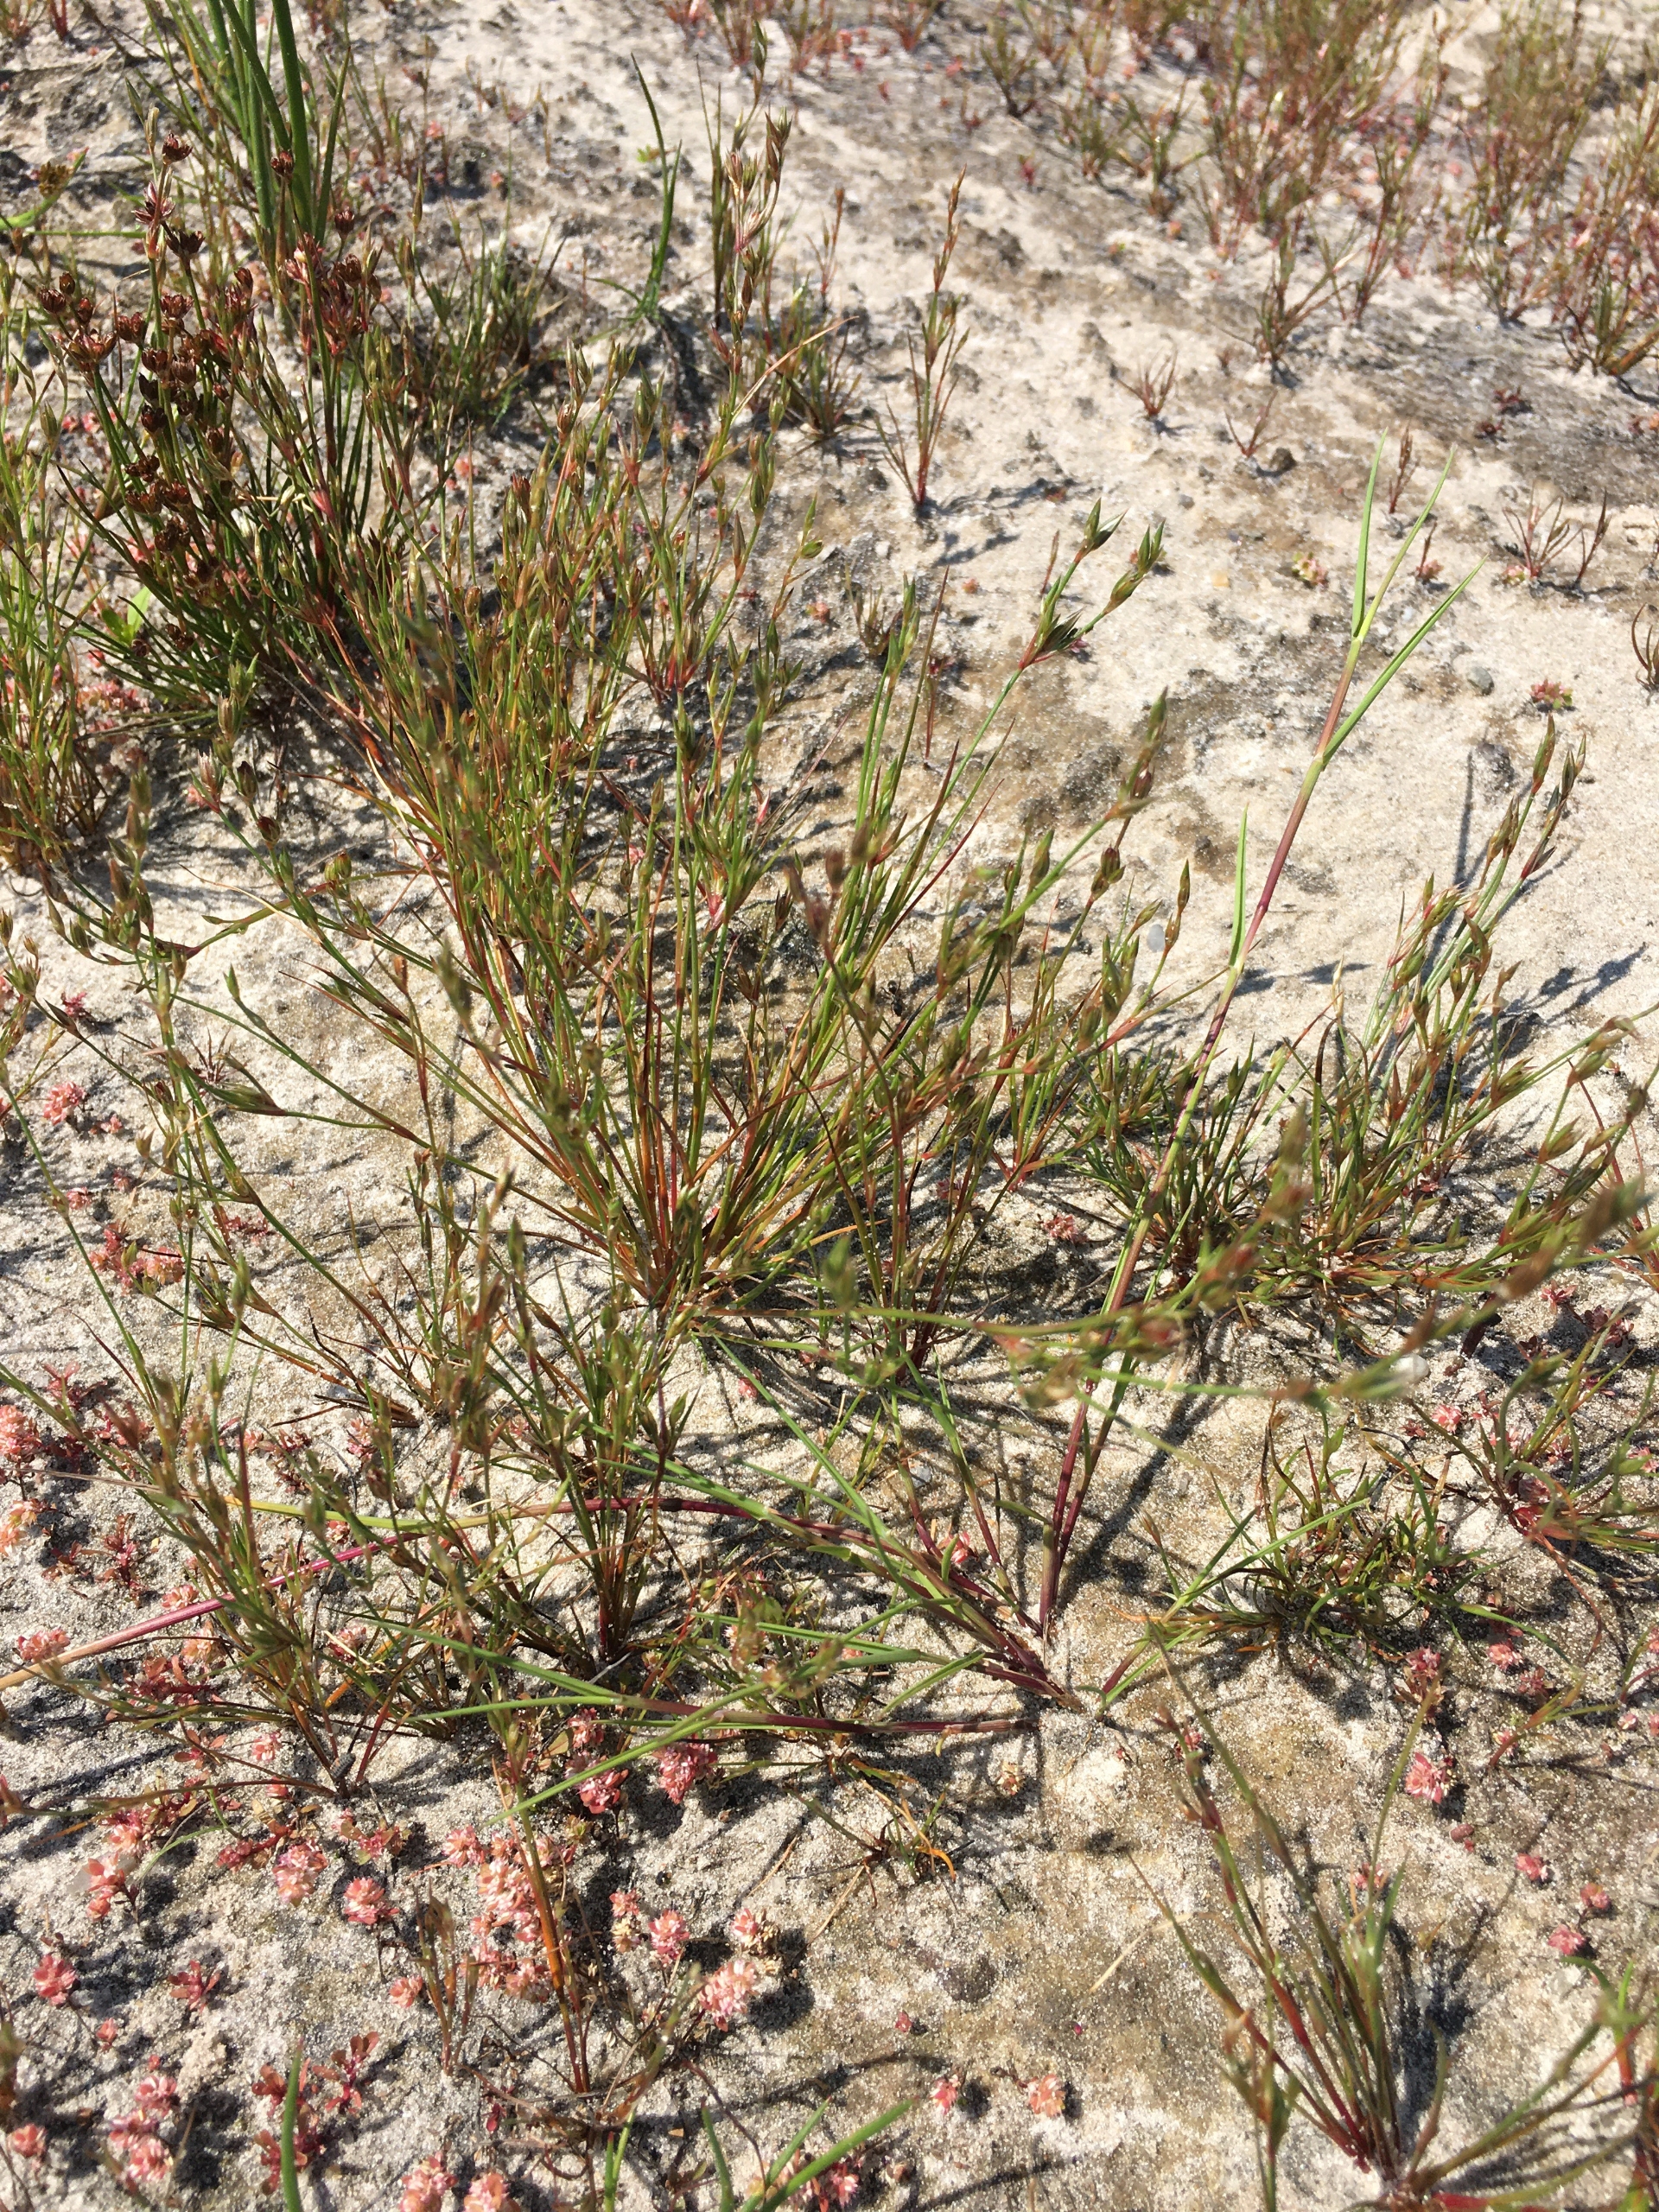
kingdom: Plantae
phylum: Tracheophyta
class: Liliopsida
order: Poales
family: Juncaceae
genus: Juncus
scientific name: Juncus bufonius
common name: Tudse-siv
